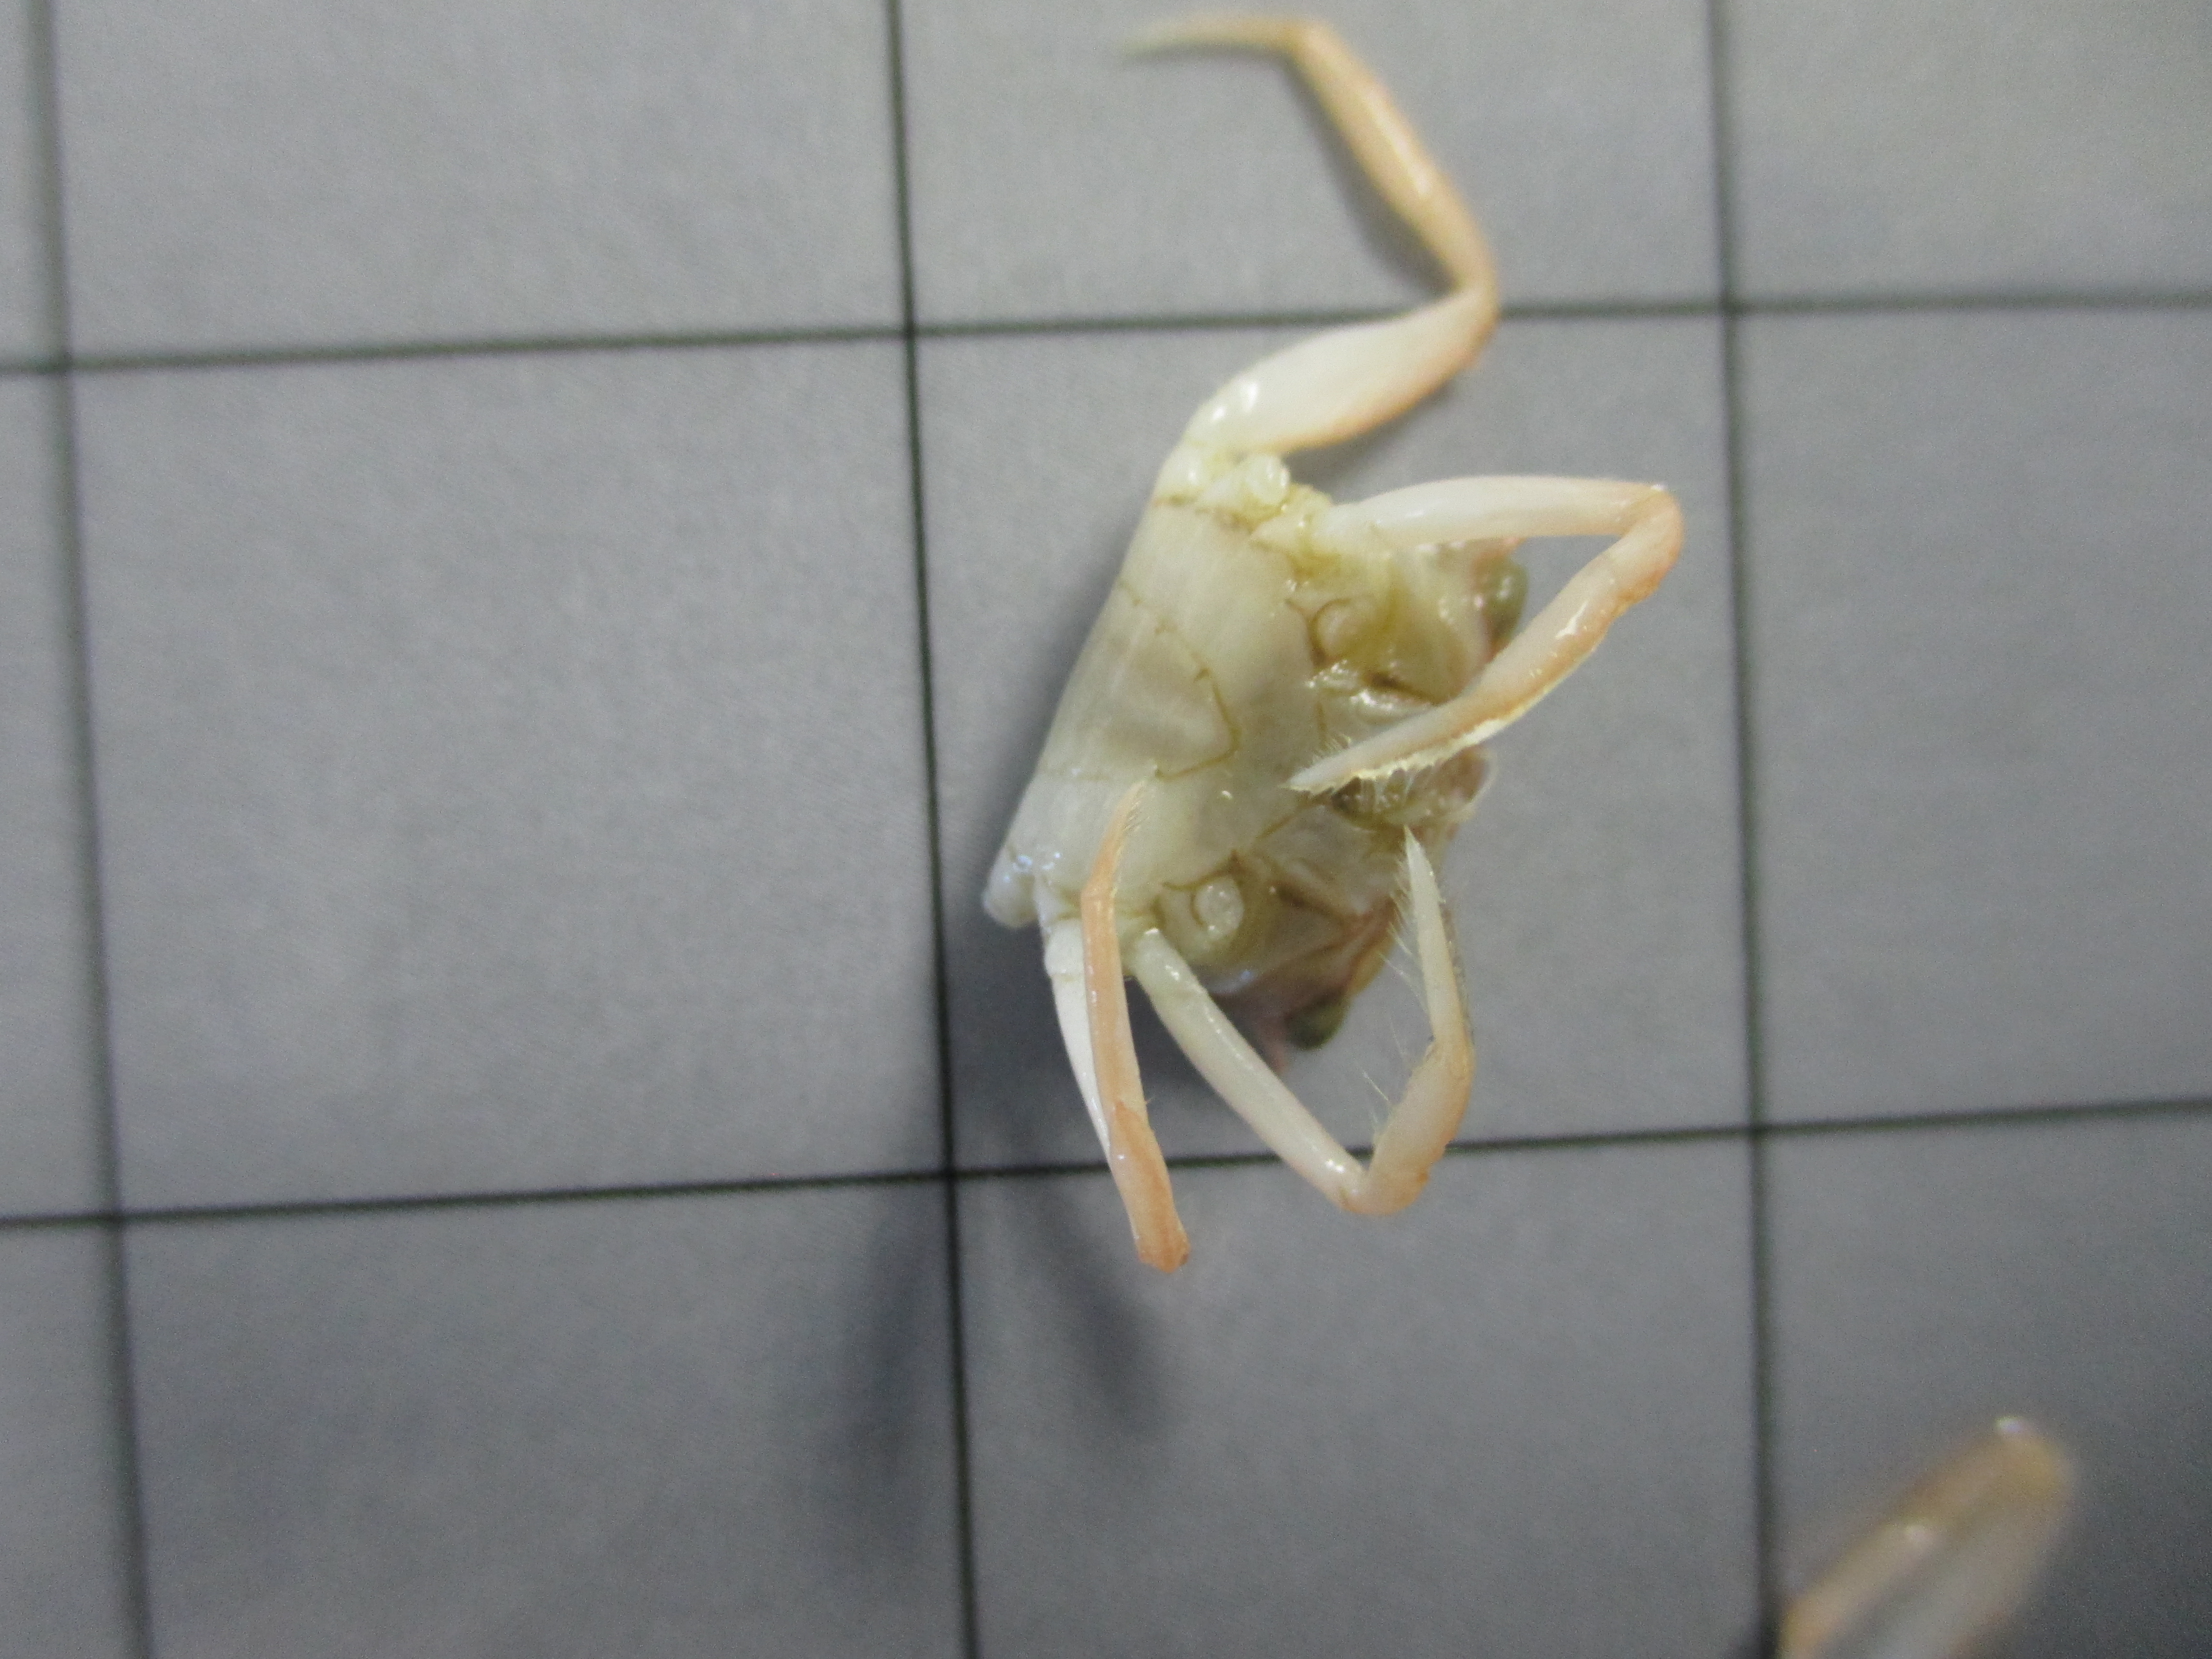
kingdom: Animalia
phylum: Arthropoda
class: Malacostraca
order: Decapoda
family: Goneplacidae
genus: Goneplax
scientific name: Goneplax clevai
